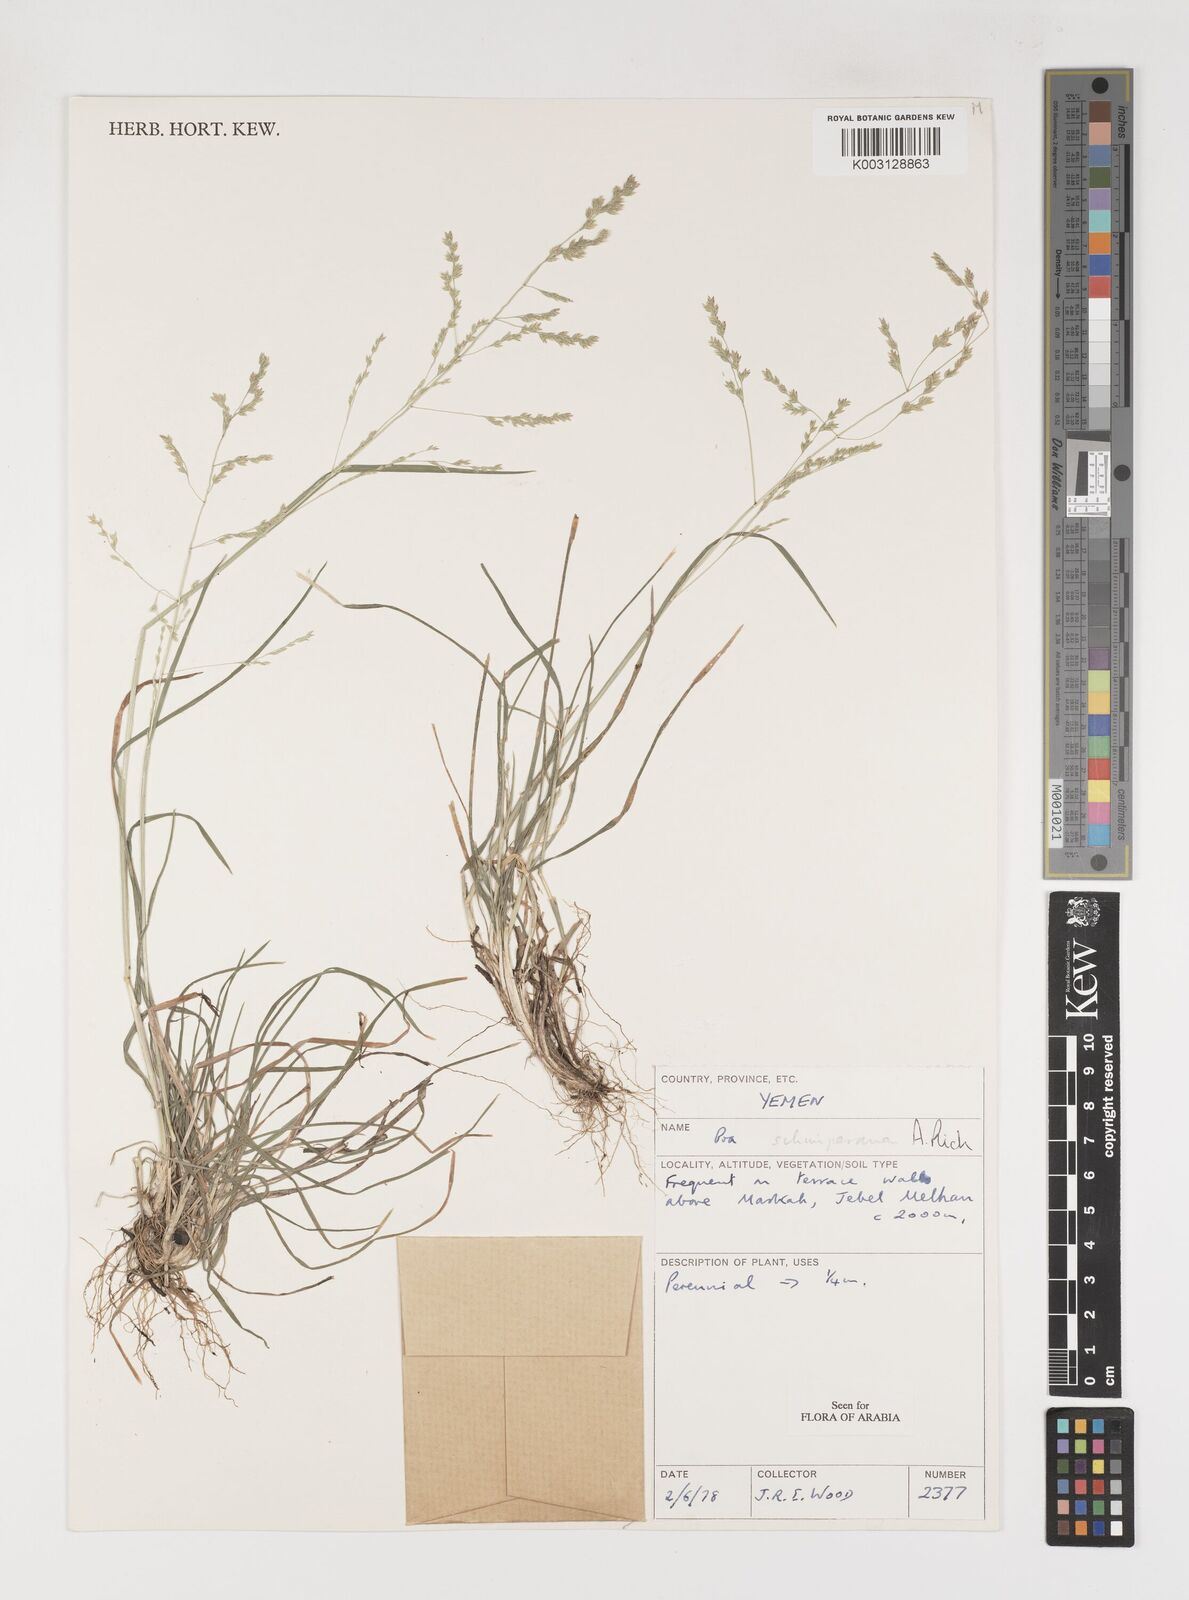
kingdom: Plantae
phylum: Tracheophyta
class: Liliopsida
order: Poales
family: Poaceae
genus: Poa
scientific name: Poa schimperiana
